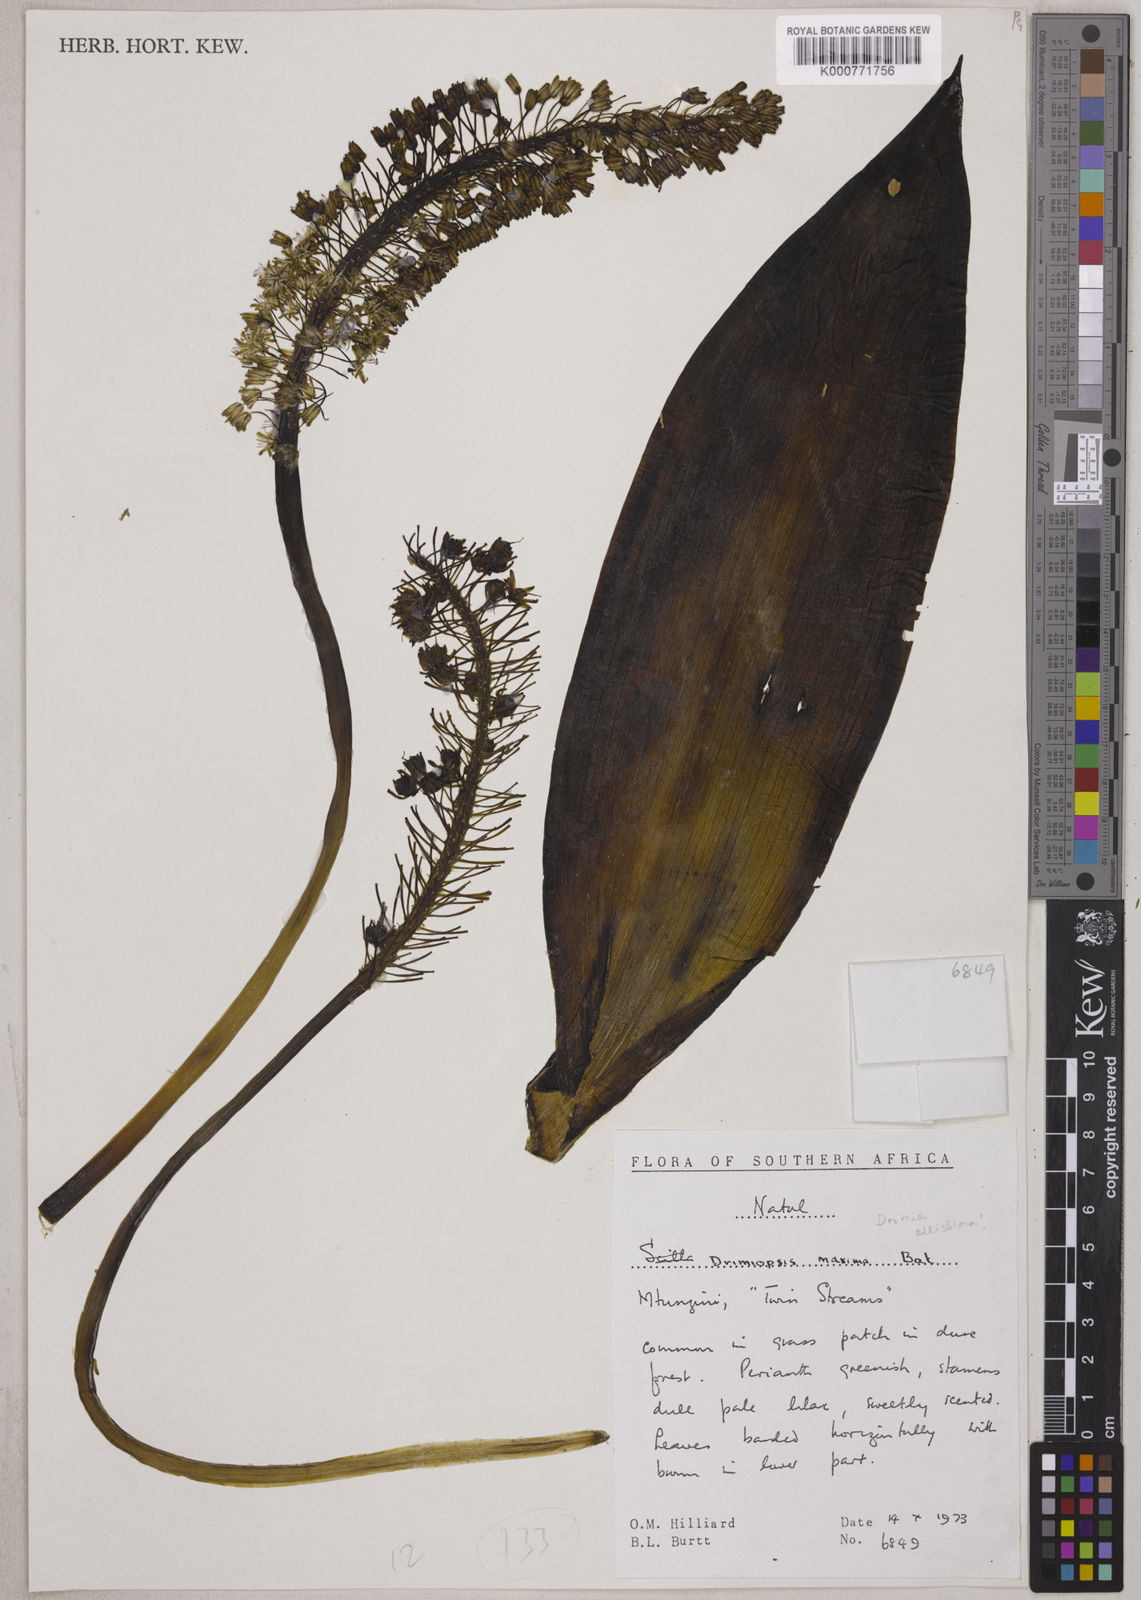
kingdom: Plantae
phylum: Tracheophyta
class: Liliopsida
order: Asparagales
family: Asparagaceae
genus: Resnova
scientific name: Resnova humifusa
